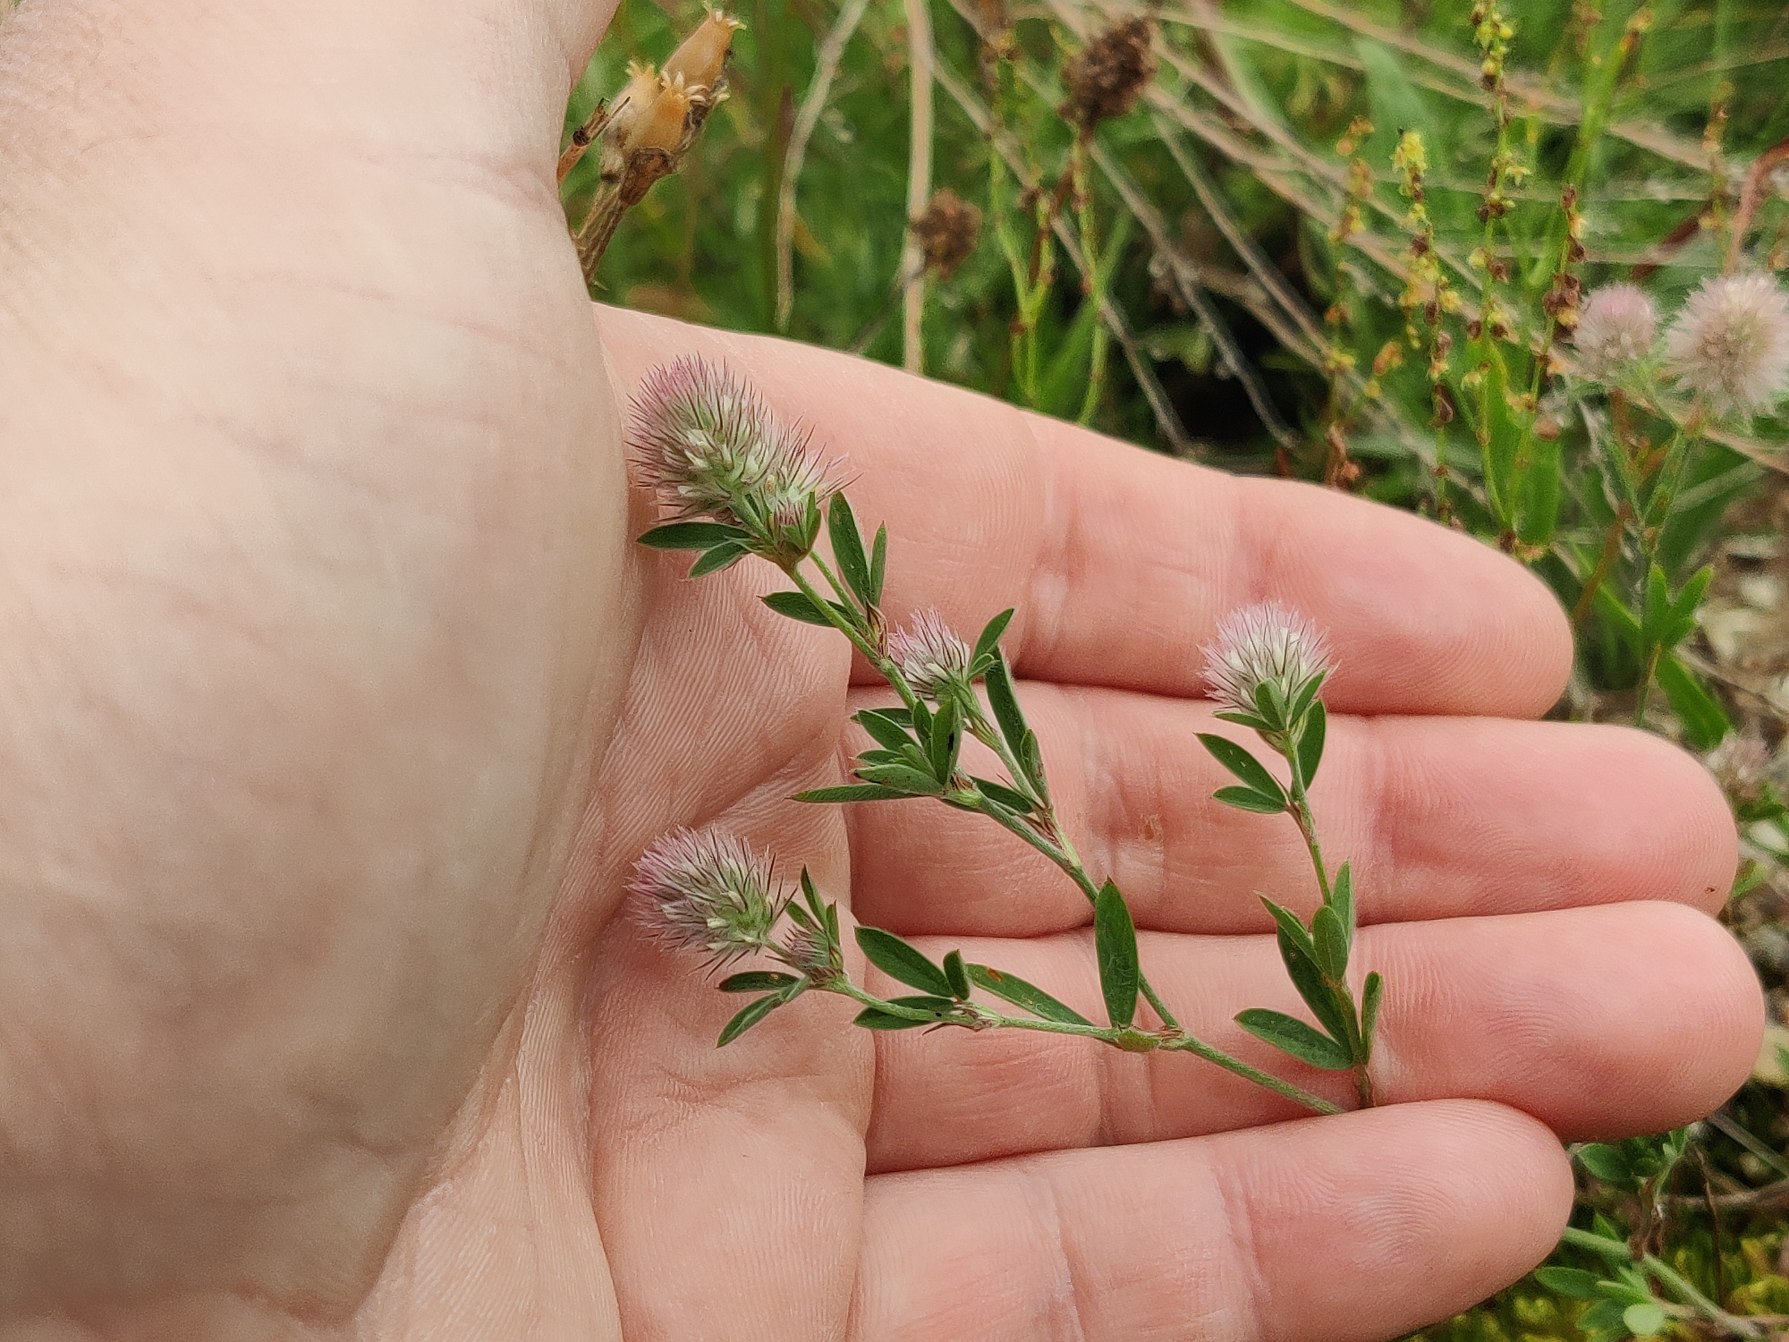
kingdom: Plantae
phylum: Tracheophyta
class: Magnoliopsida
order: Fabales
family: Fabaceae
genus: Trifolium
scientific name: Trifolium arvense
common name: Hare-kløver
